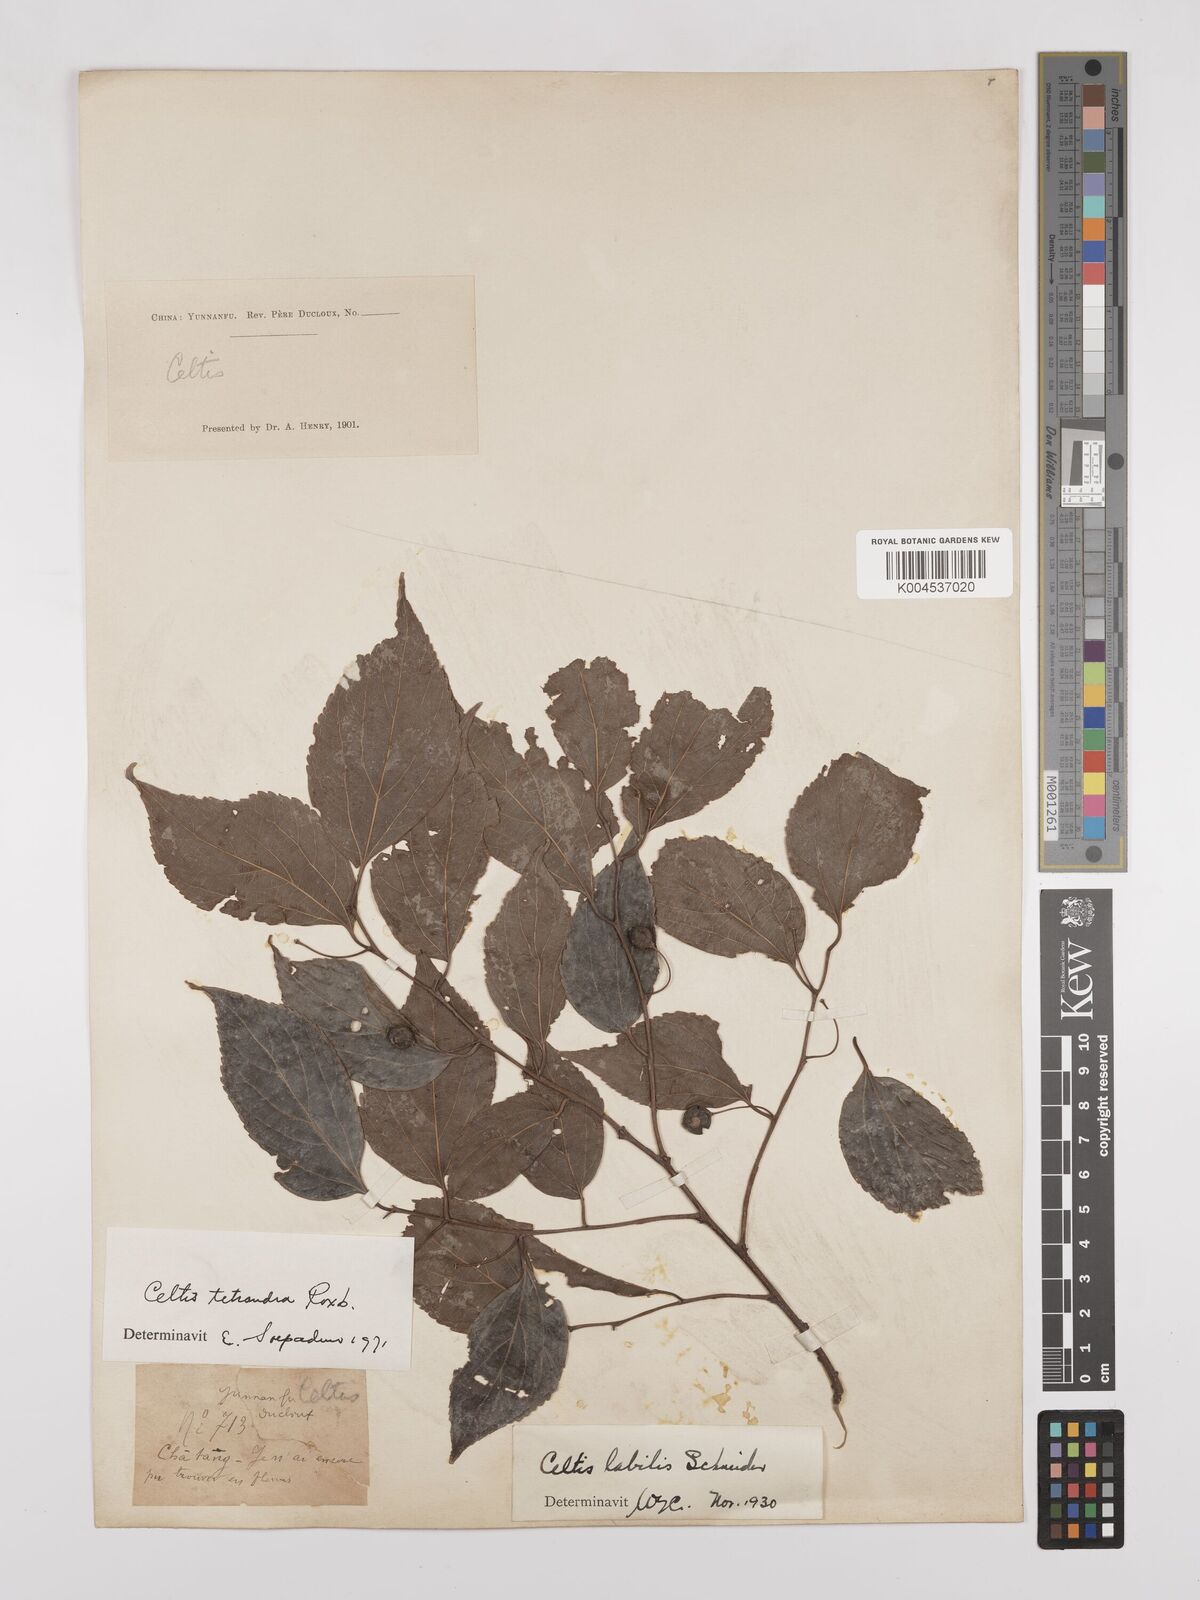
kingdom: Plantae
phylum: Tracheophyta
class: Magnoliopsida
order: Rosales
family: Cannabaceae
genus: Celtis
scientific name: Celtis tetrandra
